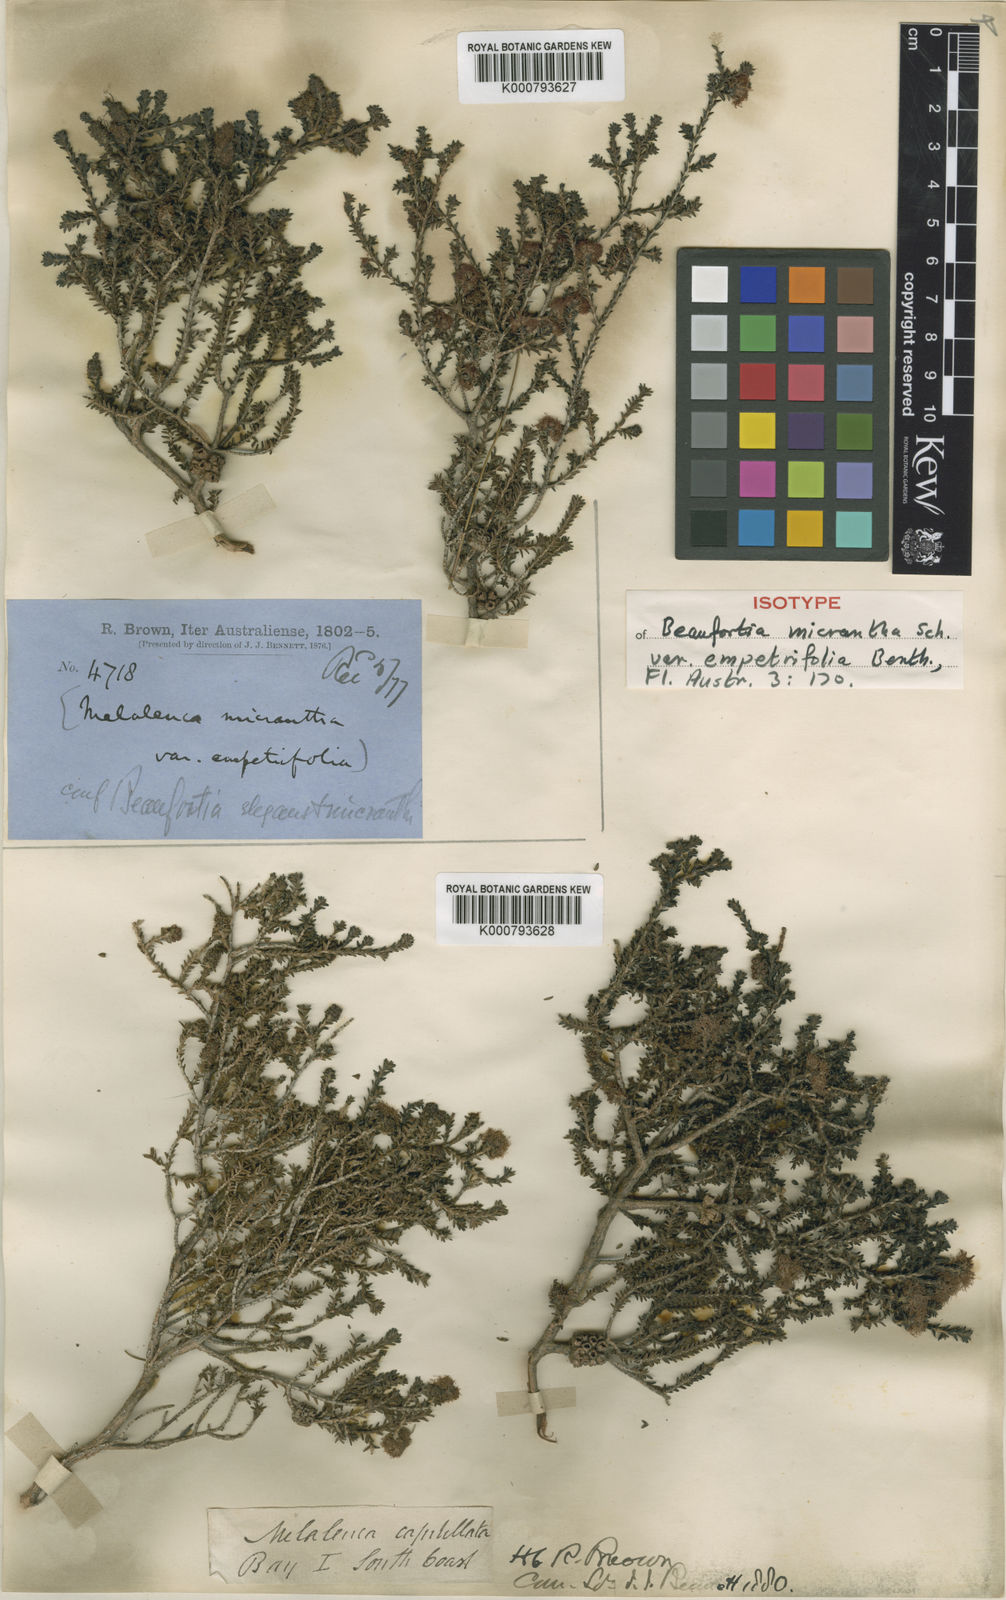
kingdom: Plantae
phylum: Tracheophyta
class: Magnoliopsida
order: Myrtales
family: Myrtaceae
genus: Melaleuca
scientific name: Melaleuca empetrifolia
